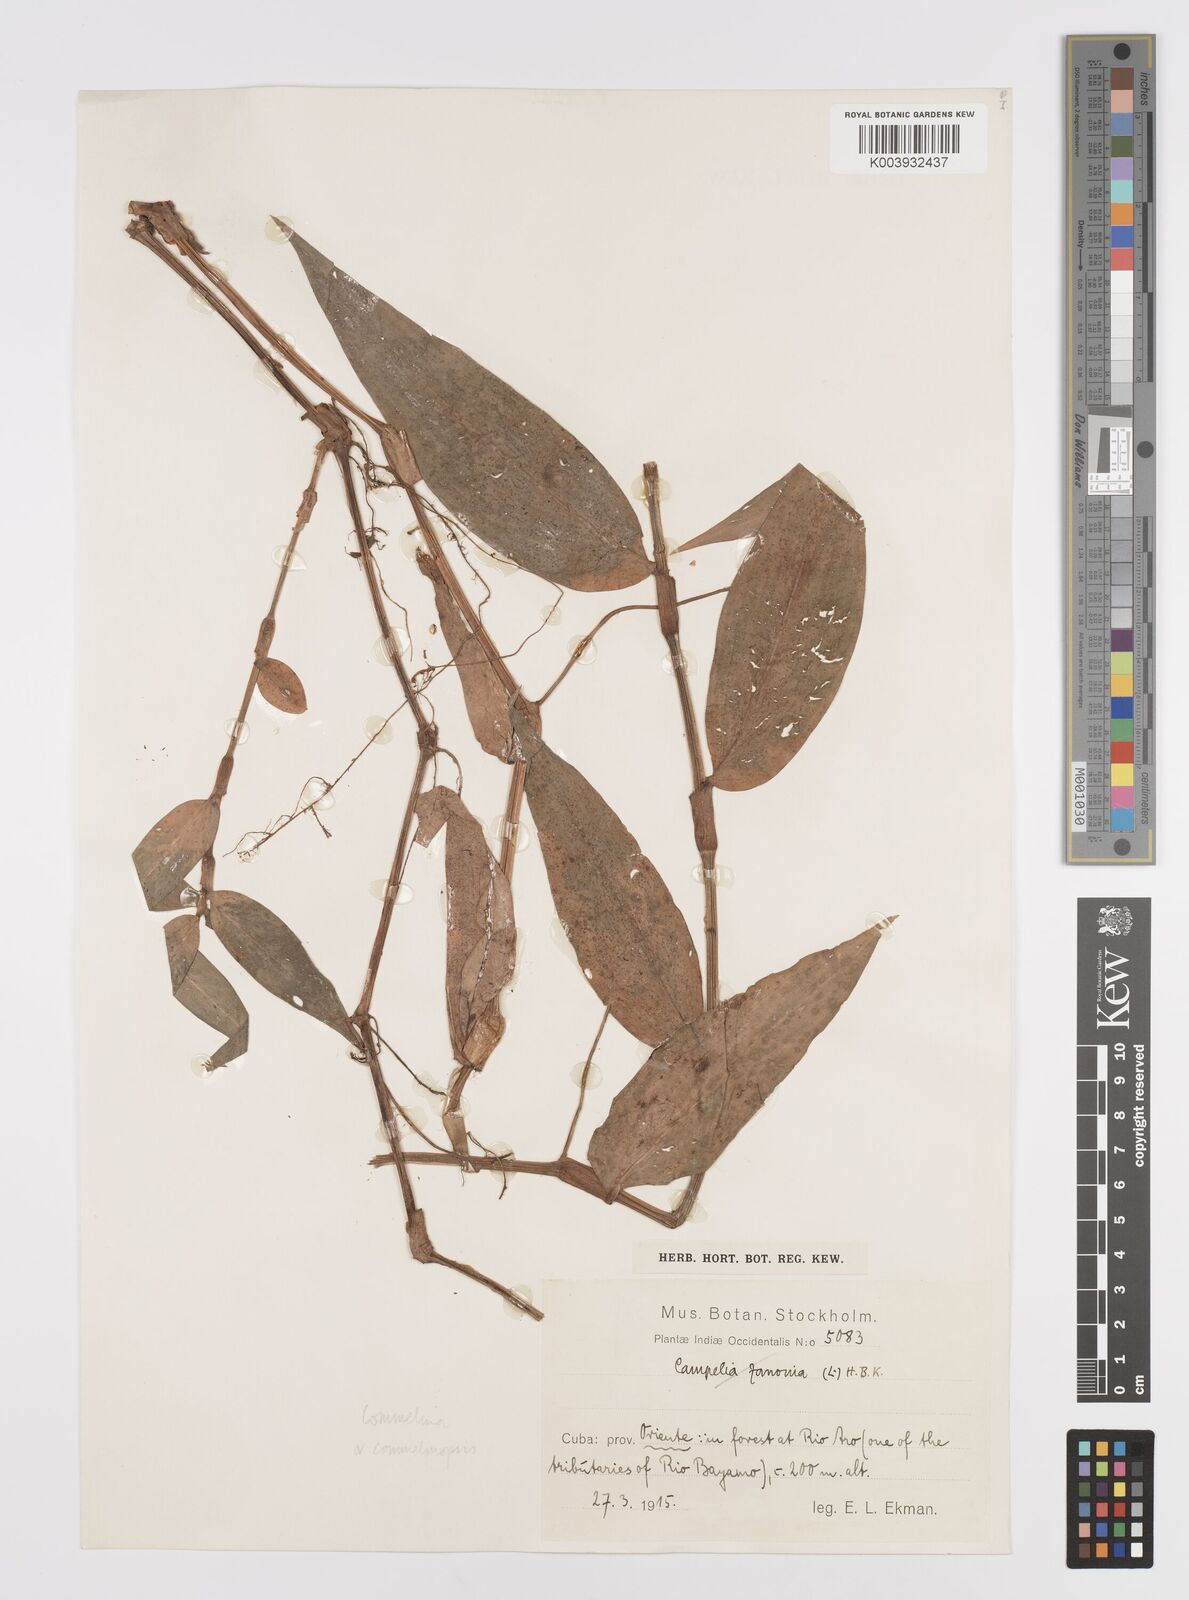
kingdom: Plantae
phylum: Tracheophyta
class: Liliopsida
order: Commelinales
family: Commelinaceae
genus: Commelina
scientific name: Commelina
